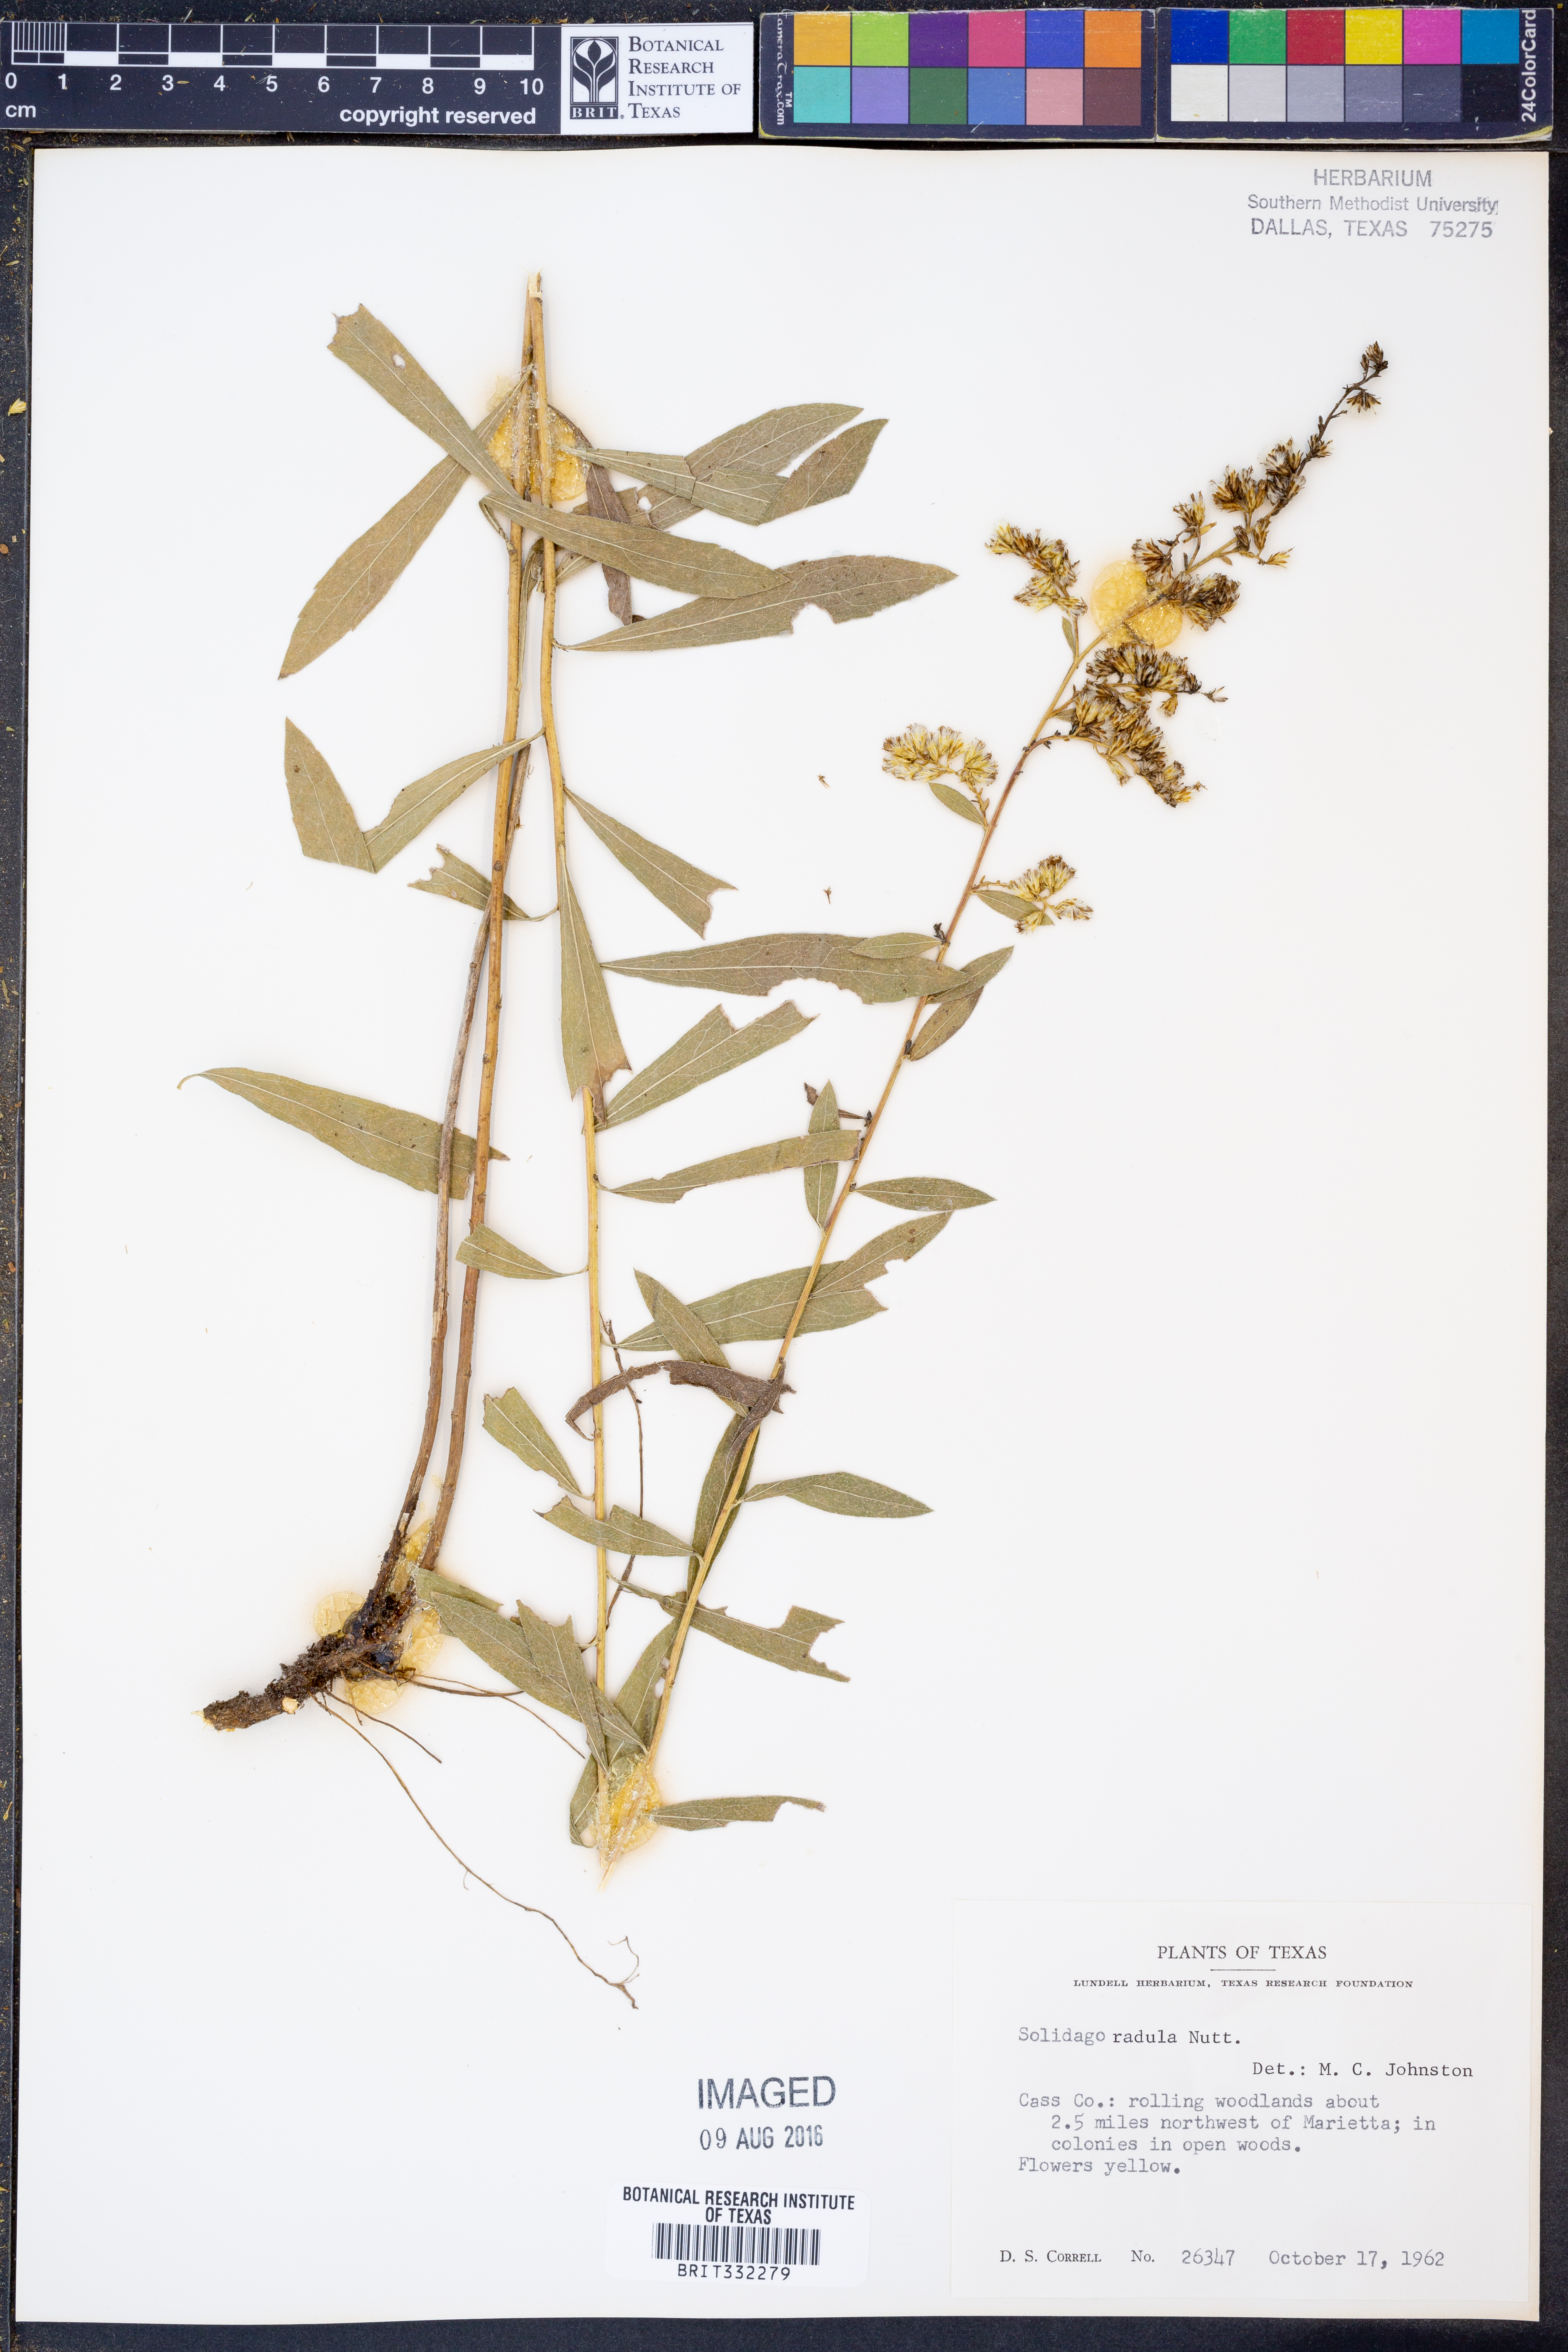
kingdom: Plantae
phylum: Tracheophyta
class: Magnoliopsida
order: Asterales
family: Asteraceae
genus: Solidago
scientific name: Solidago radula
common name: Western rough goldenrod
